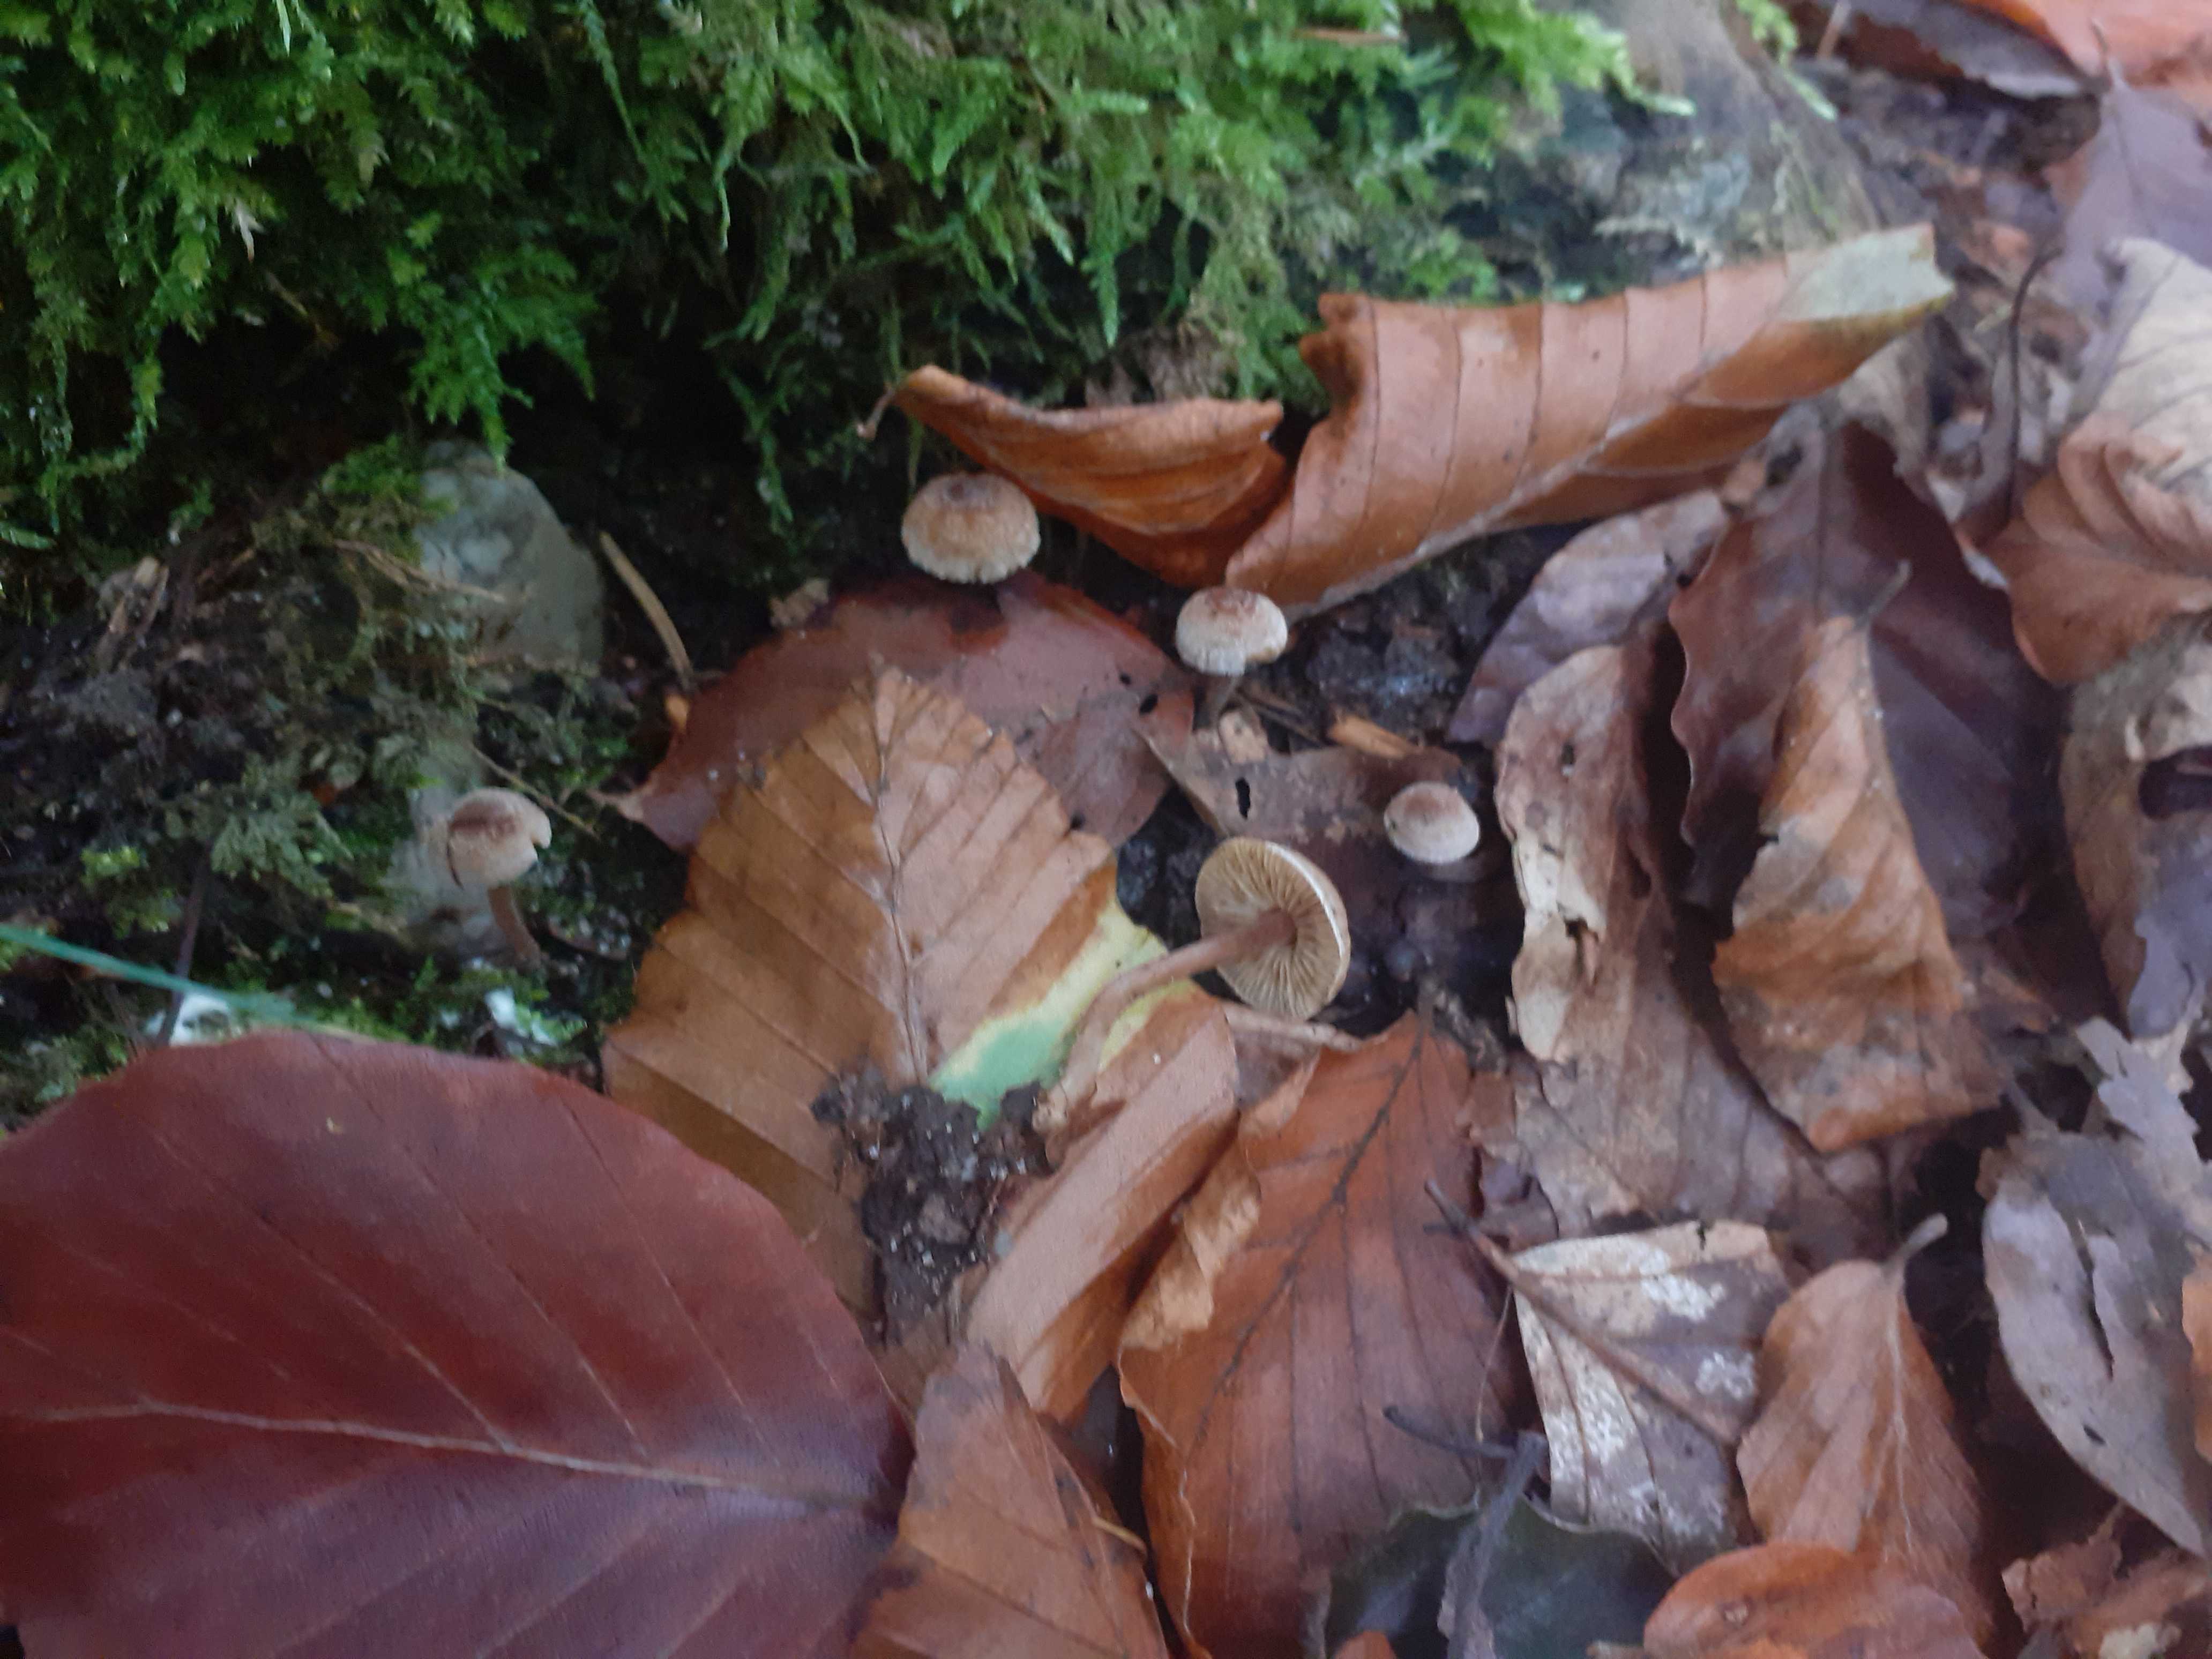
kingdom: Fungi
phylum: Basidiomycota
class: Agaricomycetes
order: Agaricales
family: Inocybaceae
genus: Inocybe
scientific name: Inocybe petiginosa
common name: liden trævlhat
